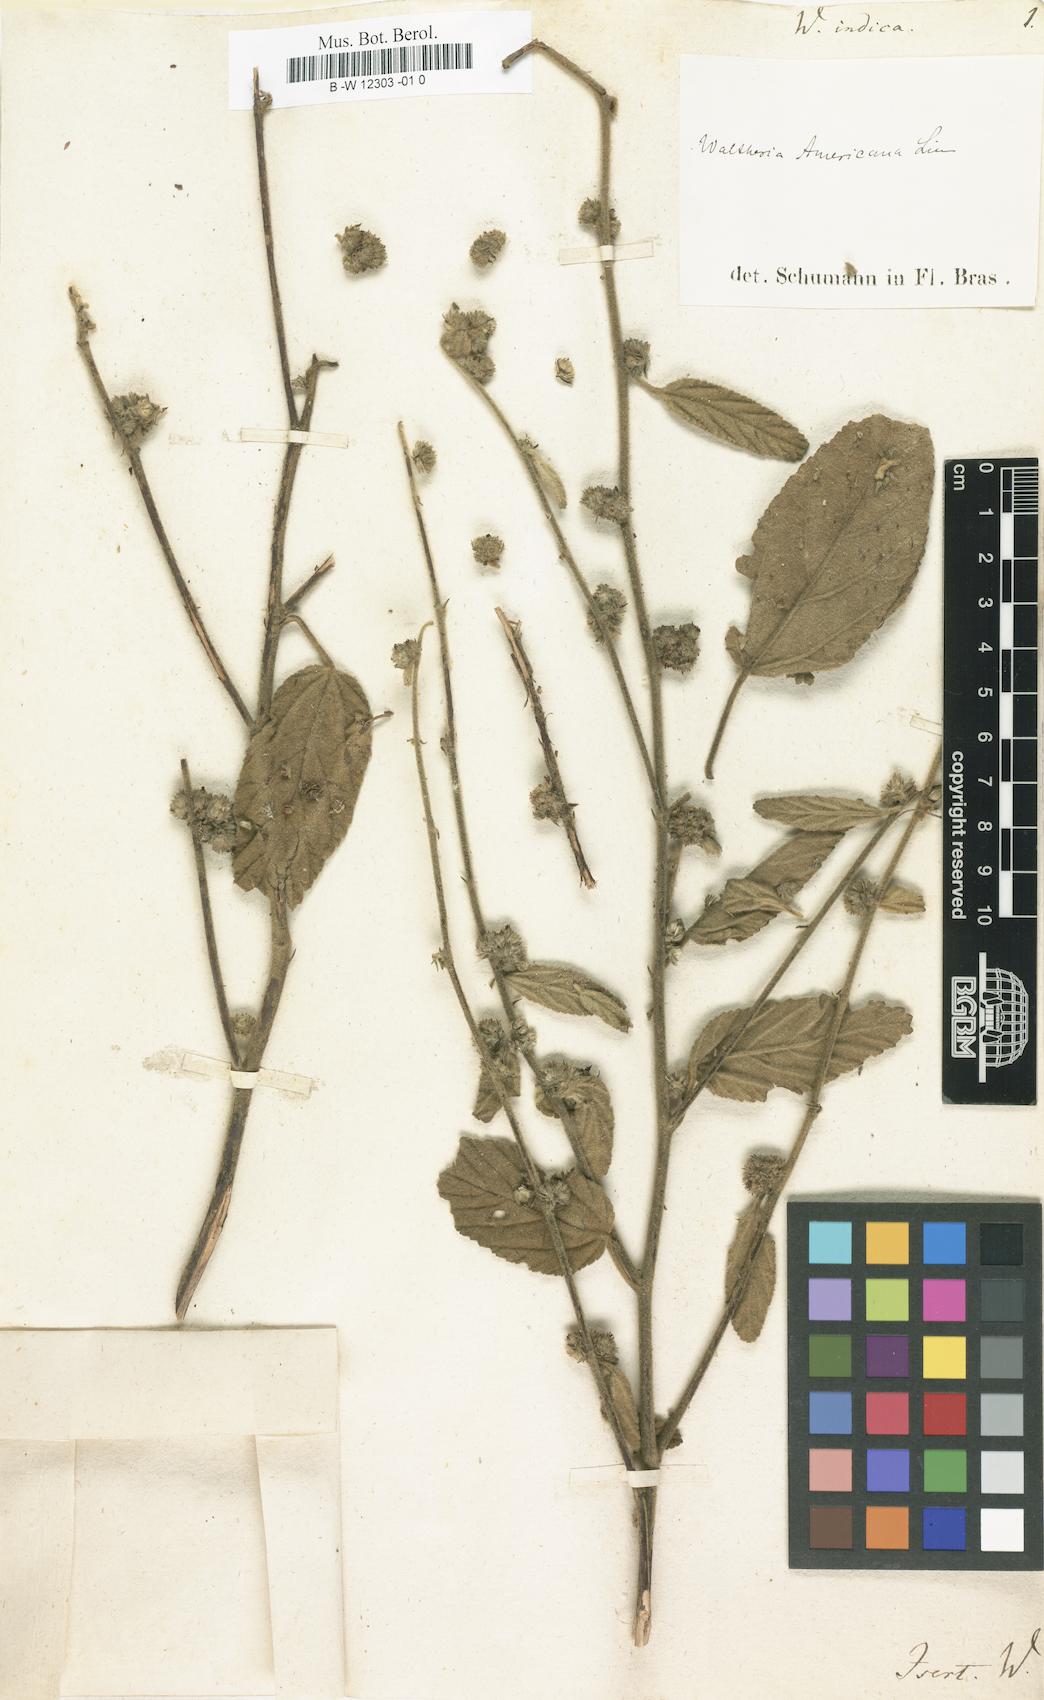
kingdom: Plantae
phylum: Tracheophyta
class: Magnoliopsida
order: Malvales
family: Malvaceae
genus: Waltheria
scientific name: Waltheria indica
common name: Leather-coat
